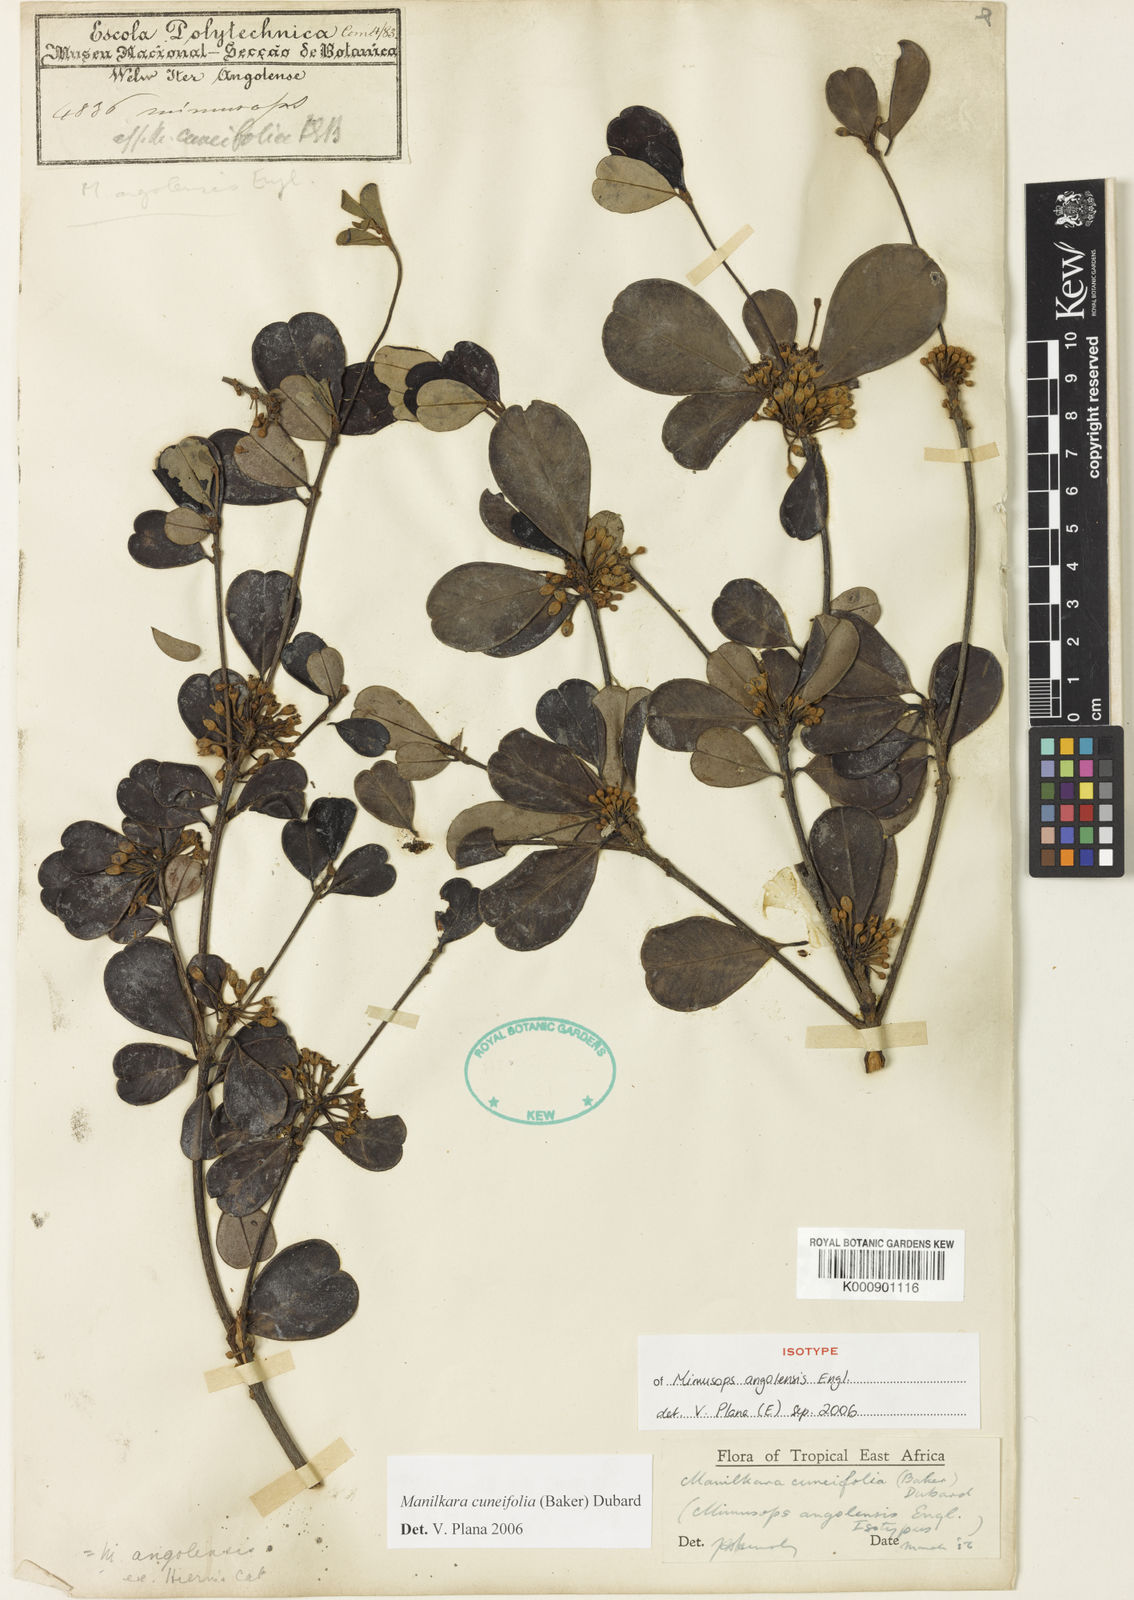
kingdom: Plantae
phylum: Tracheophyta
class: Magnoliopsida
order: Ericales
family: Sapotaceae
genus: Manilkara
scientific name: Manilkara obovata
